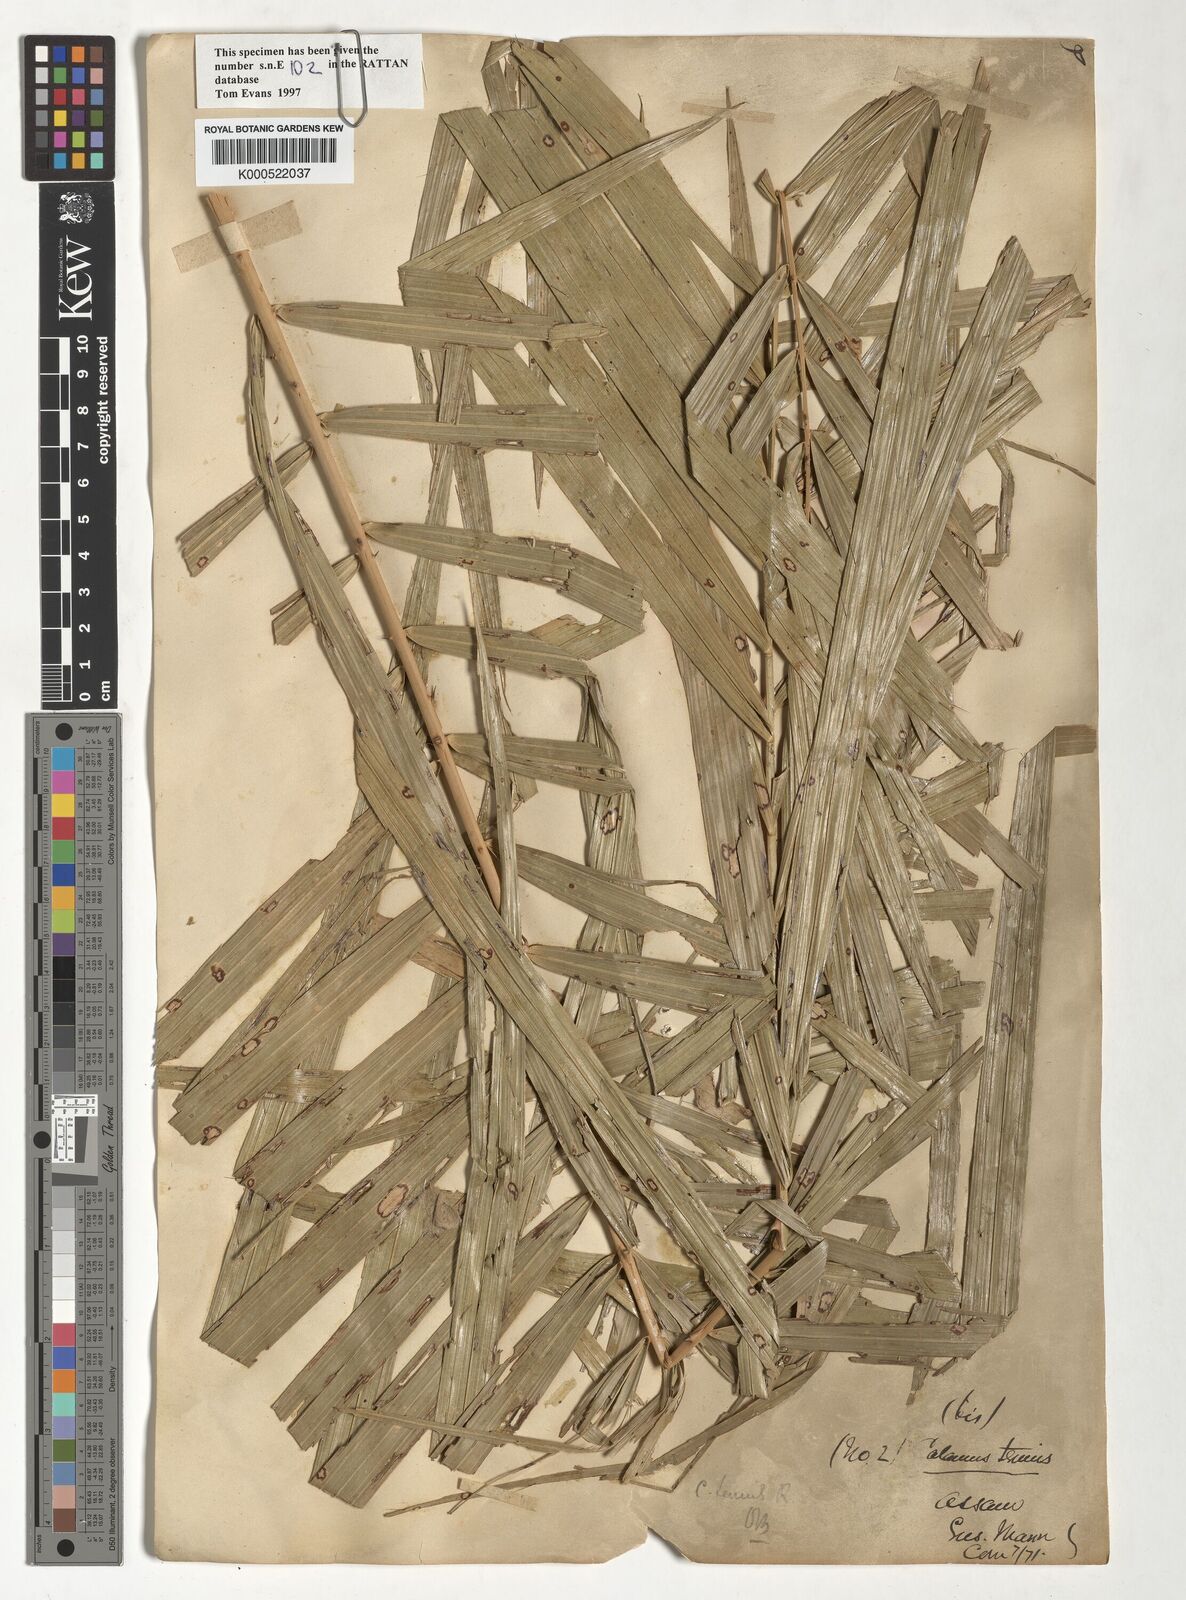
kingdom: Plantae
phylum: Tracheophyta
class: Liliopsida
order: Arecales
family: Arecaceae
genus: Calamus
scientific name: Calamus tenuis
